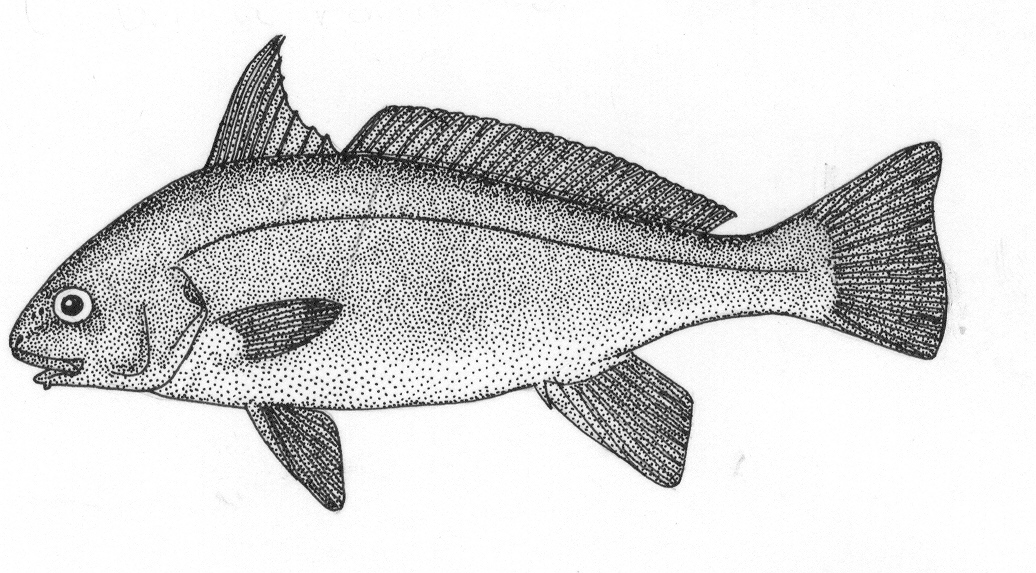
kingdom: Animalia
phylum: Chordata
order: Perciformes
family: Sciaenidae
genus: Umbrina
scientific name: Umbrina ronchus
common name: Slender baardman
